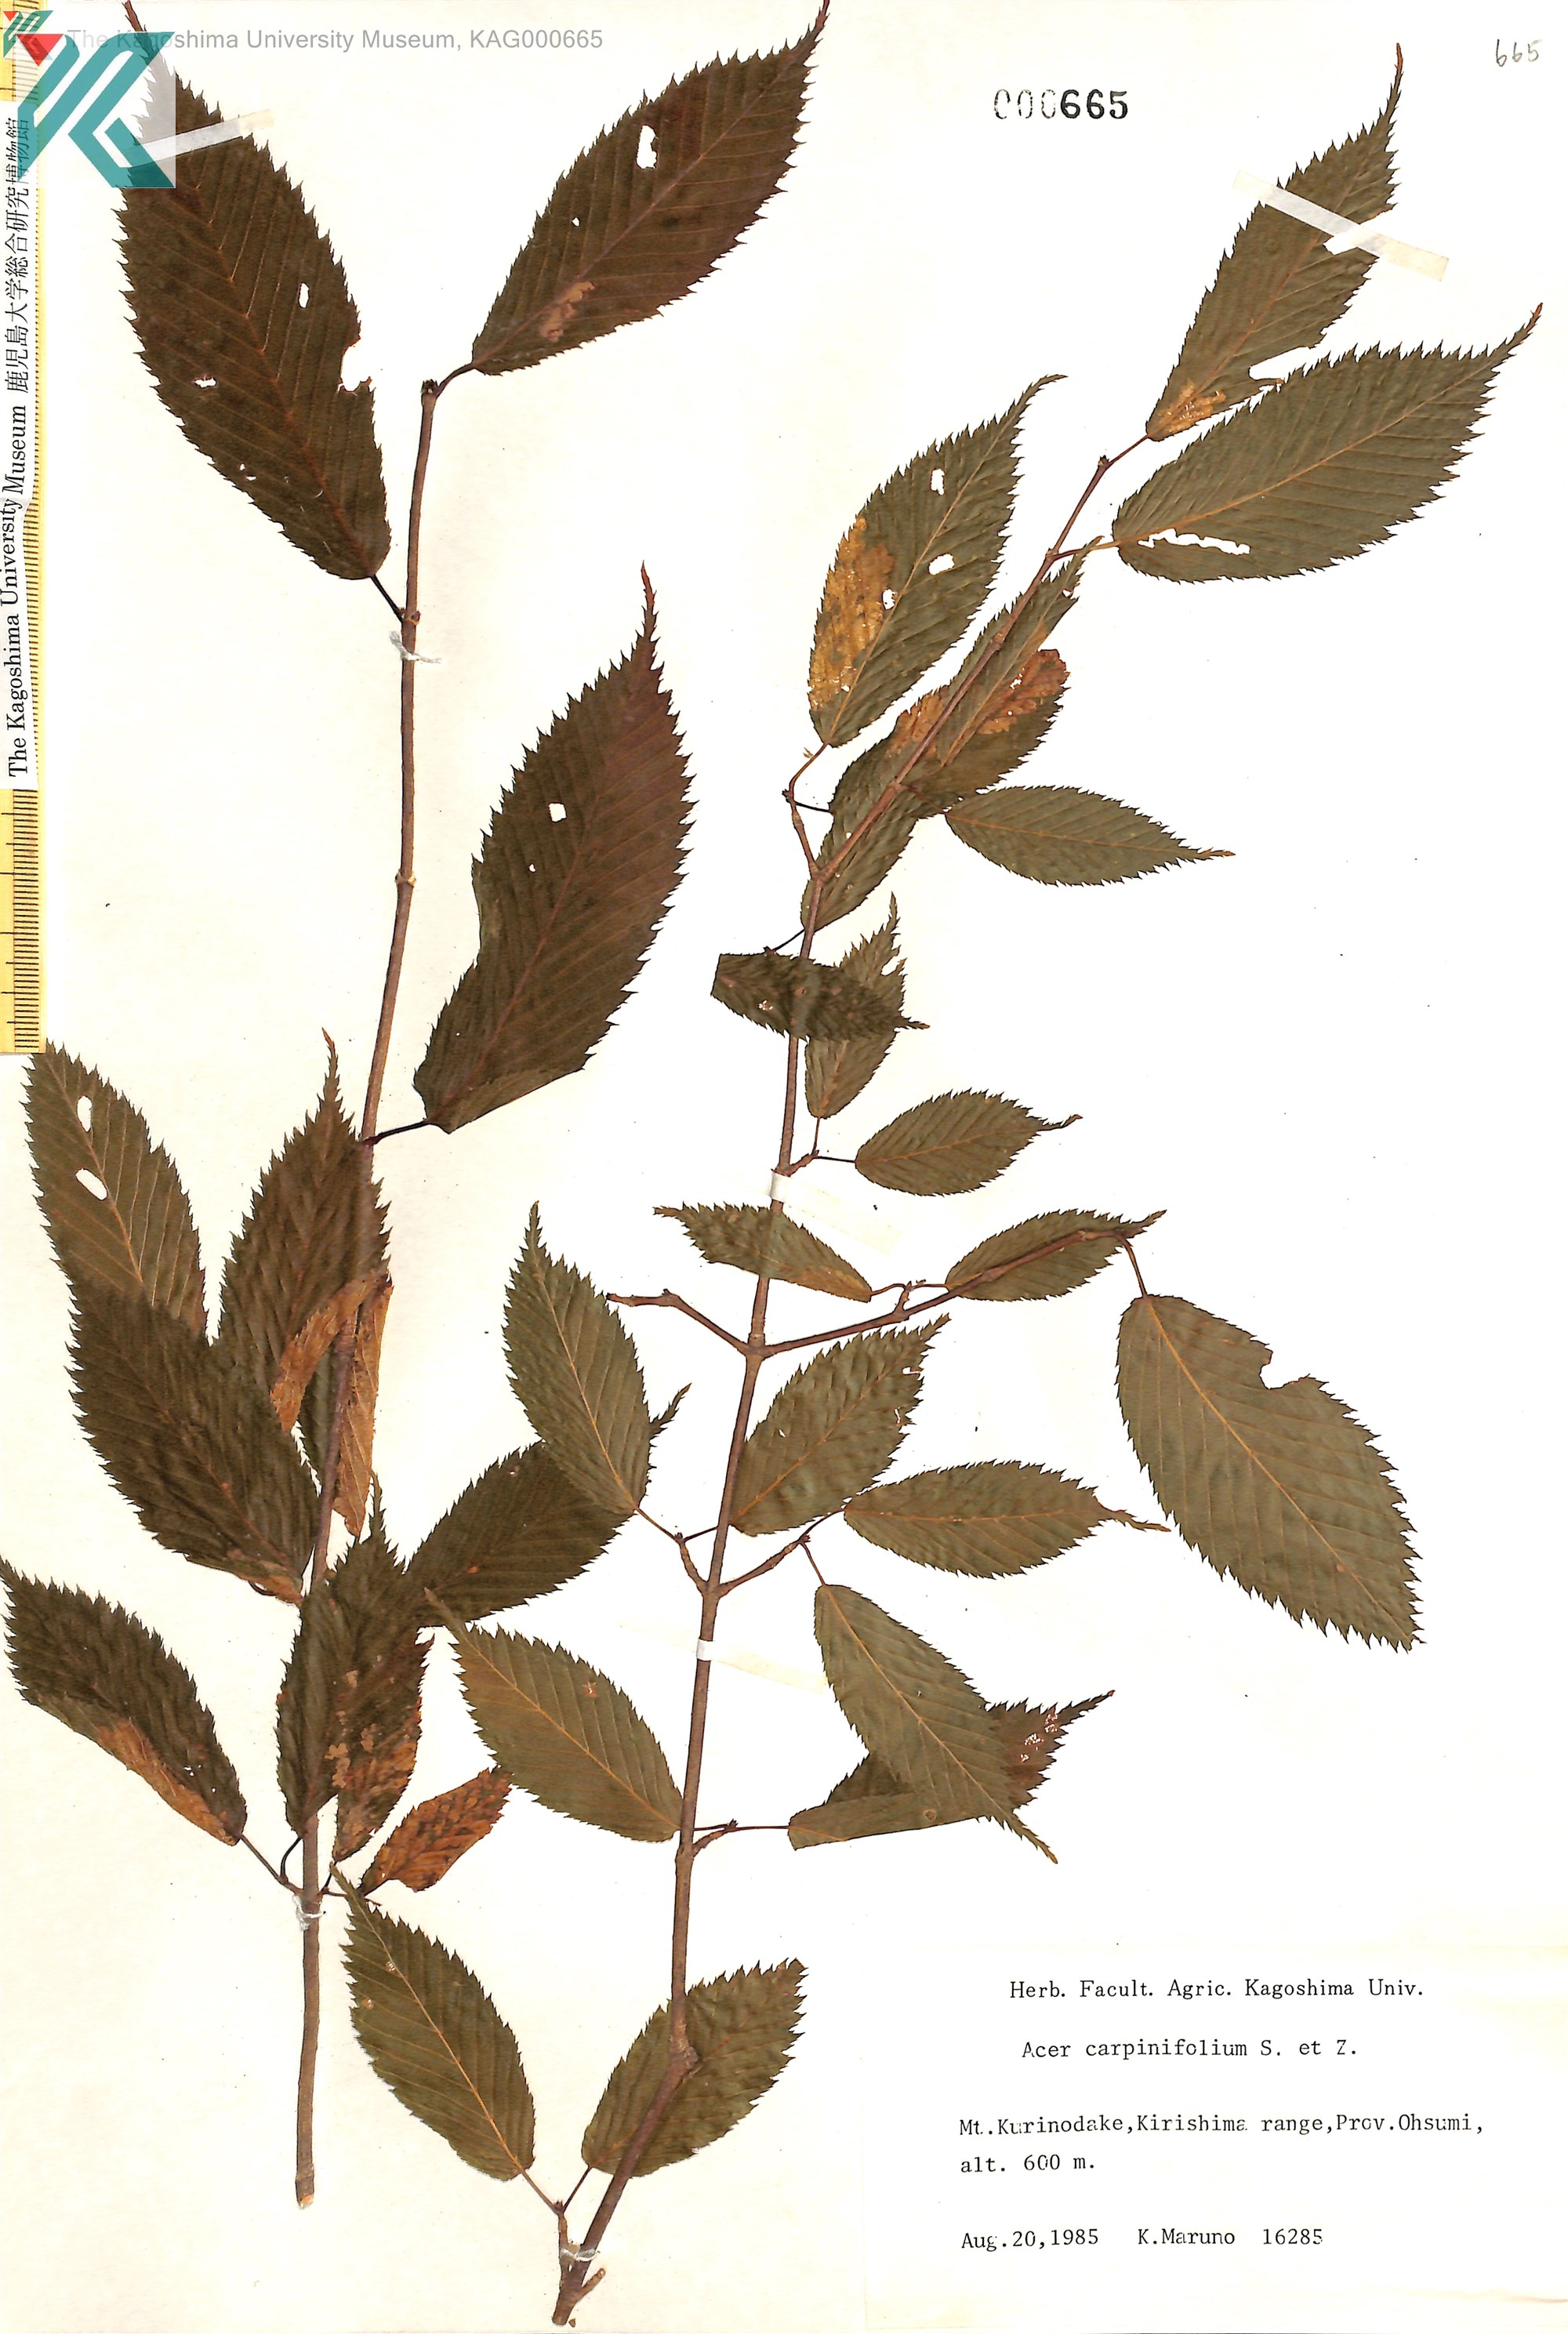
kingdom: Plantae
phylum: Tracheophyta
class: Magnoliopsida
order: Sapindales
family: Sapindaceae
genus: Acer
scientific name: Acer carpinifolium
